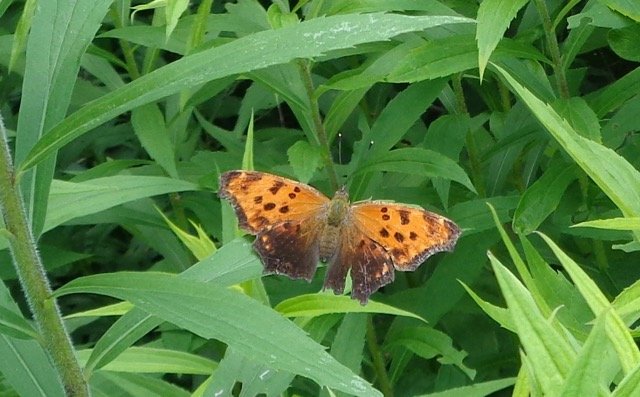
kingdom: Animalia
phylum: Arthropoda
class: Insecta
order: Lepidoptera
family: Nymphalidae
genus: Polygonia
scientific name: Polygonia comma
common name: Eastern Comma
